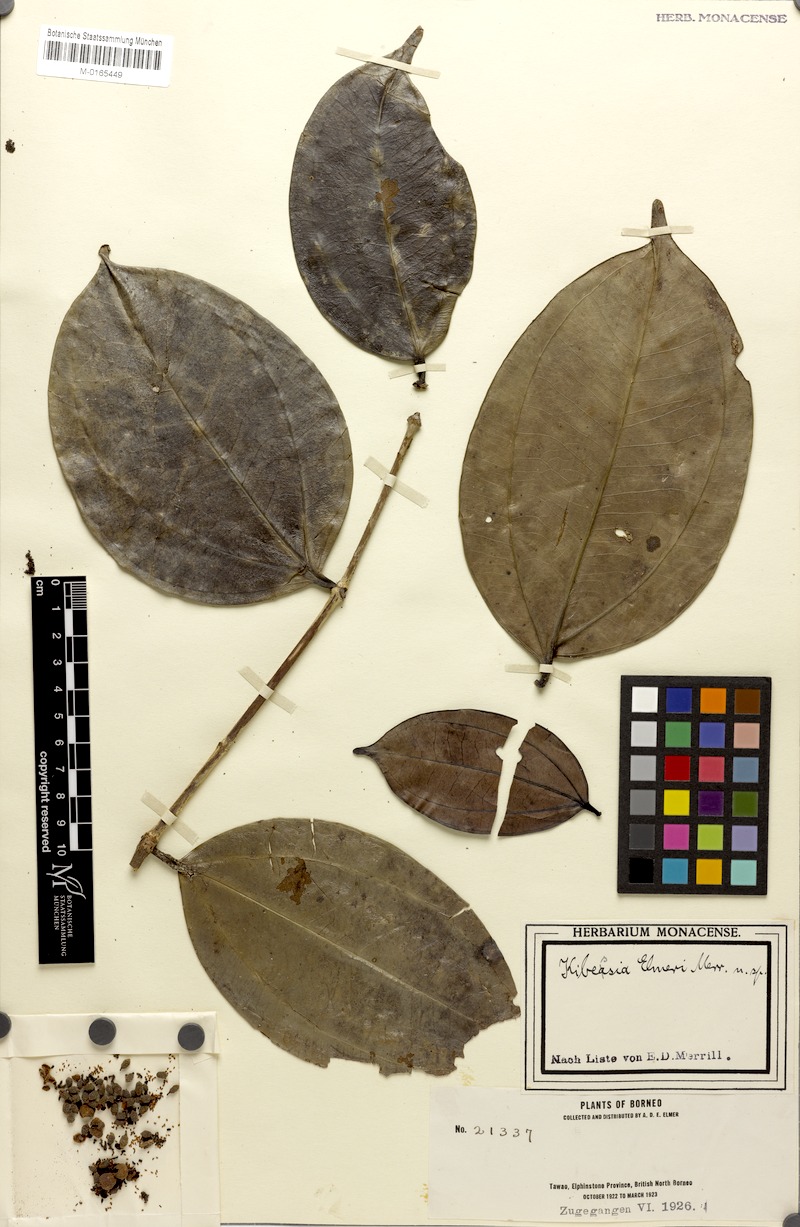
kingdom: Plantae
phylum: Tracheophyta
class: Magnoliopsida
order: Myrtales
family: Melastomataceae
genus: Pternandra
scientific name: Pternandra galeata
